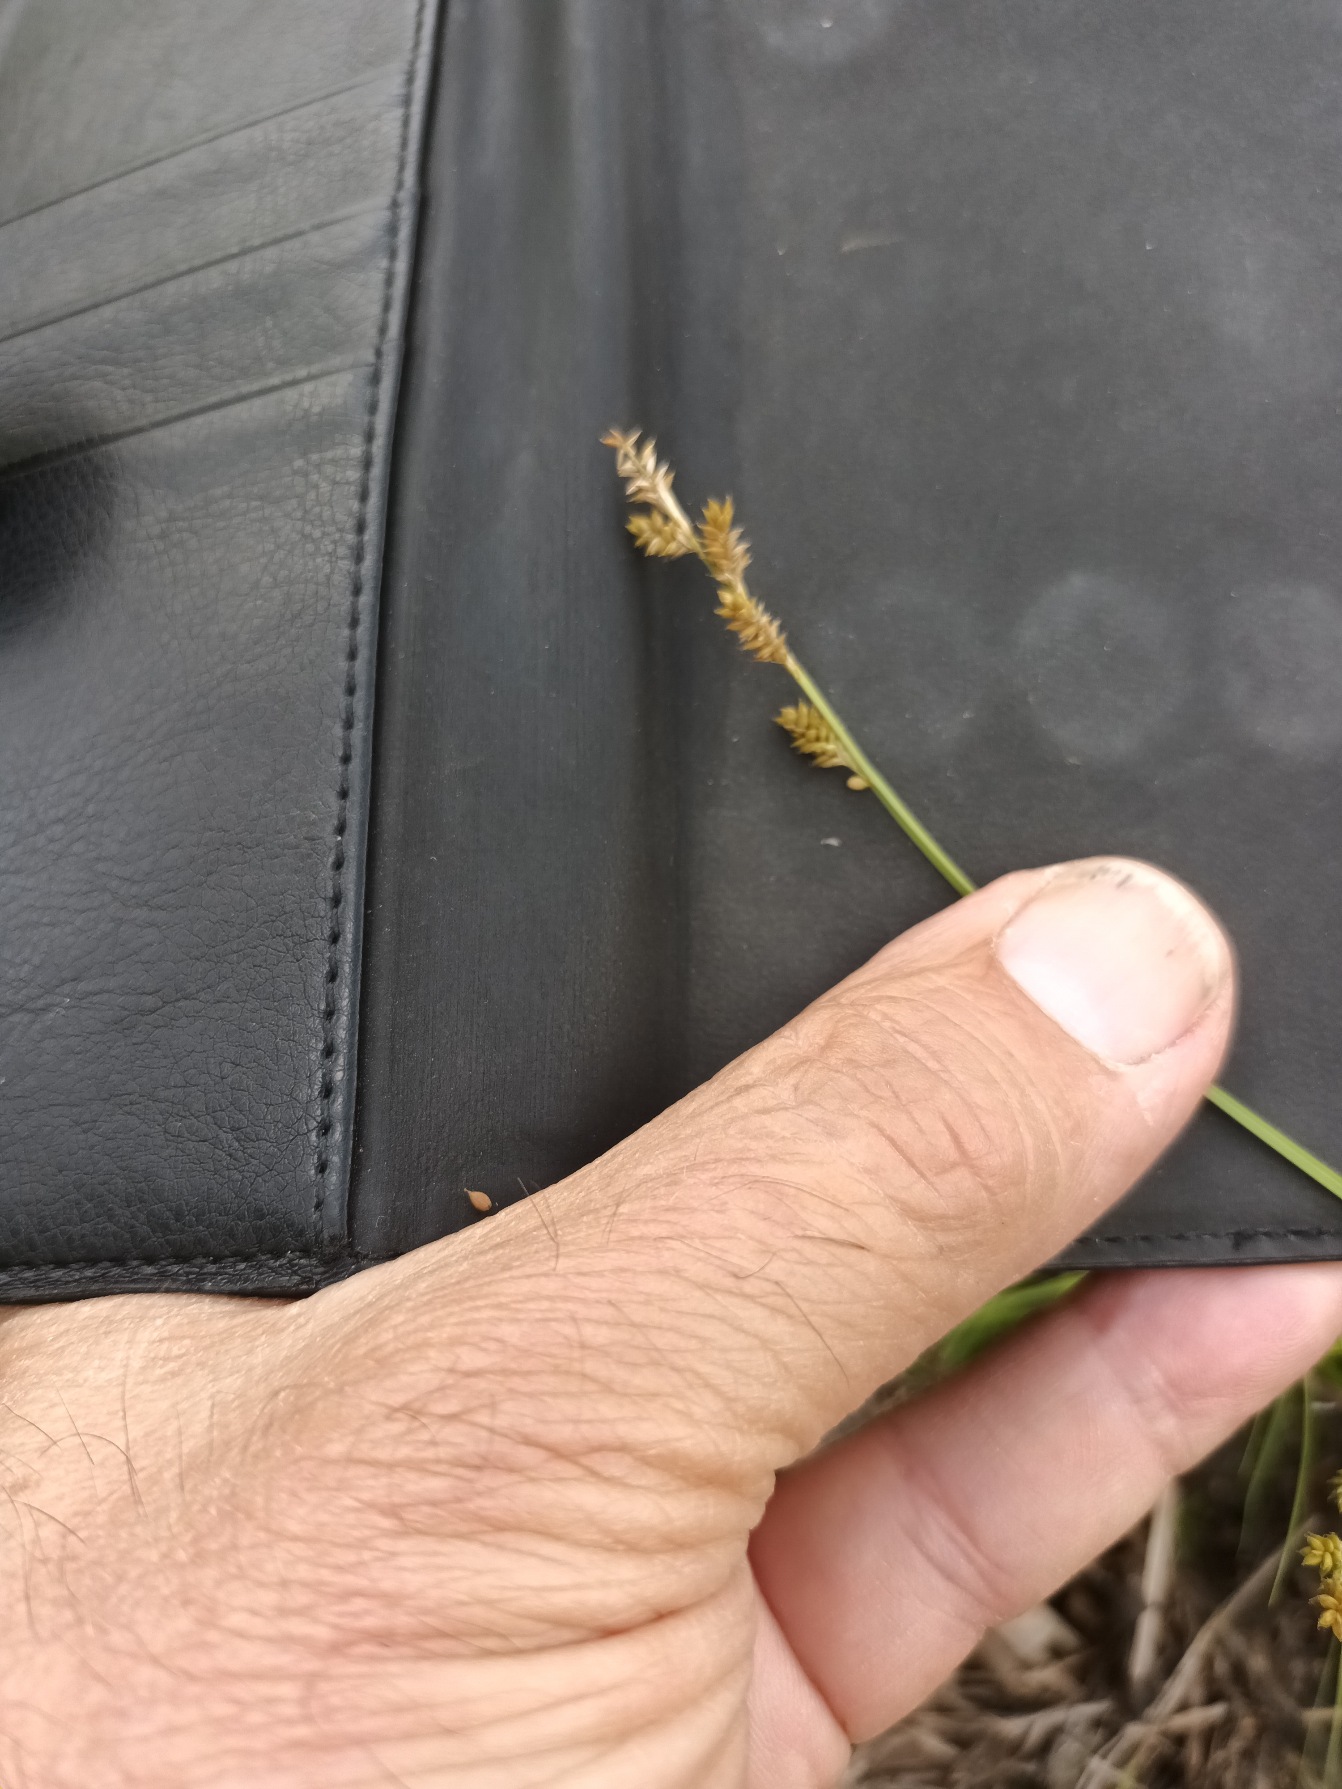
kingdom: Plantae
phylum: Tracheophyta
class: Liliopsida
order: Poales
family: Cyperaceae
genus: Carex
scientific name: Carex canescens
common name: Grå star
